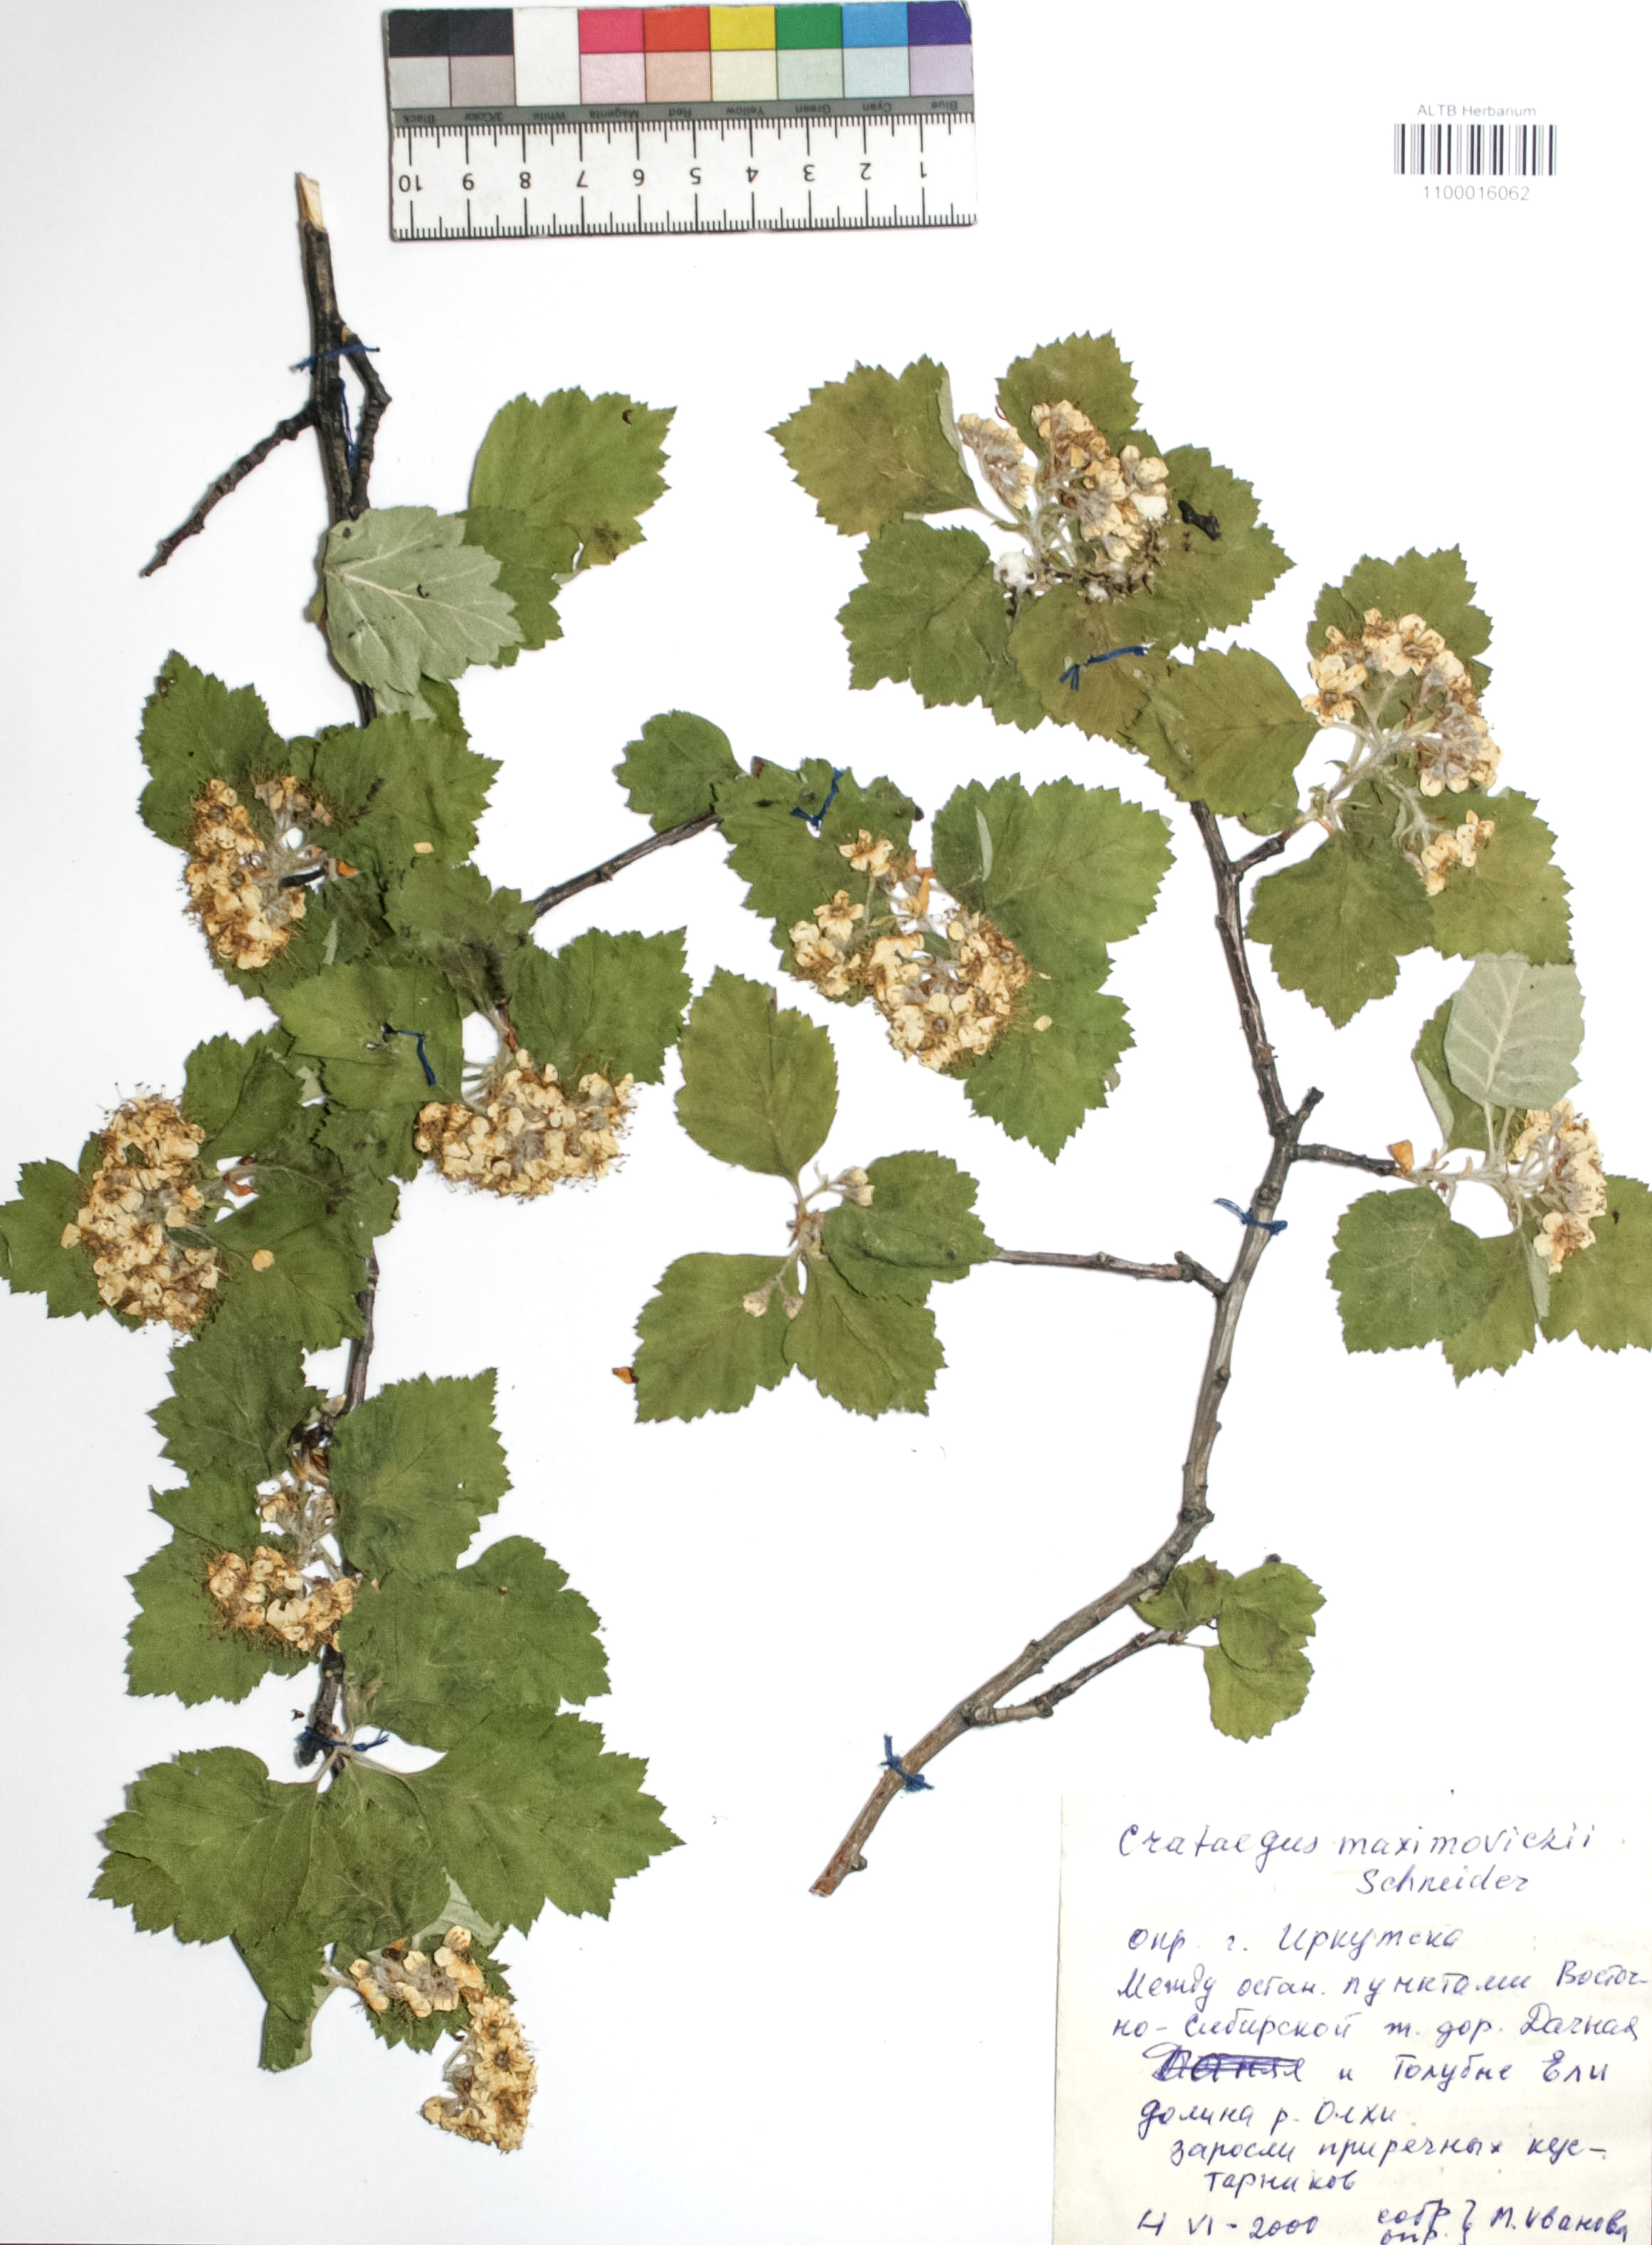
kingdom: Plantae
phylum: Tracheophyta
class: Magnoliopsida
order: Rosales
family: Rosaceae
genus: Crataegus
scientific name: Crataegus maximowiczii
